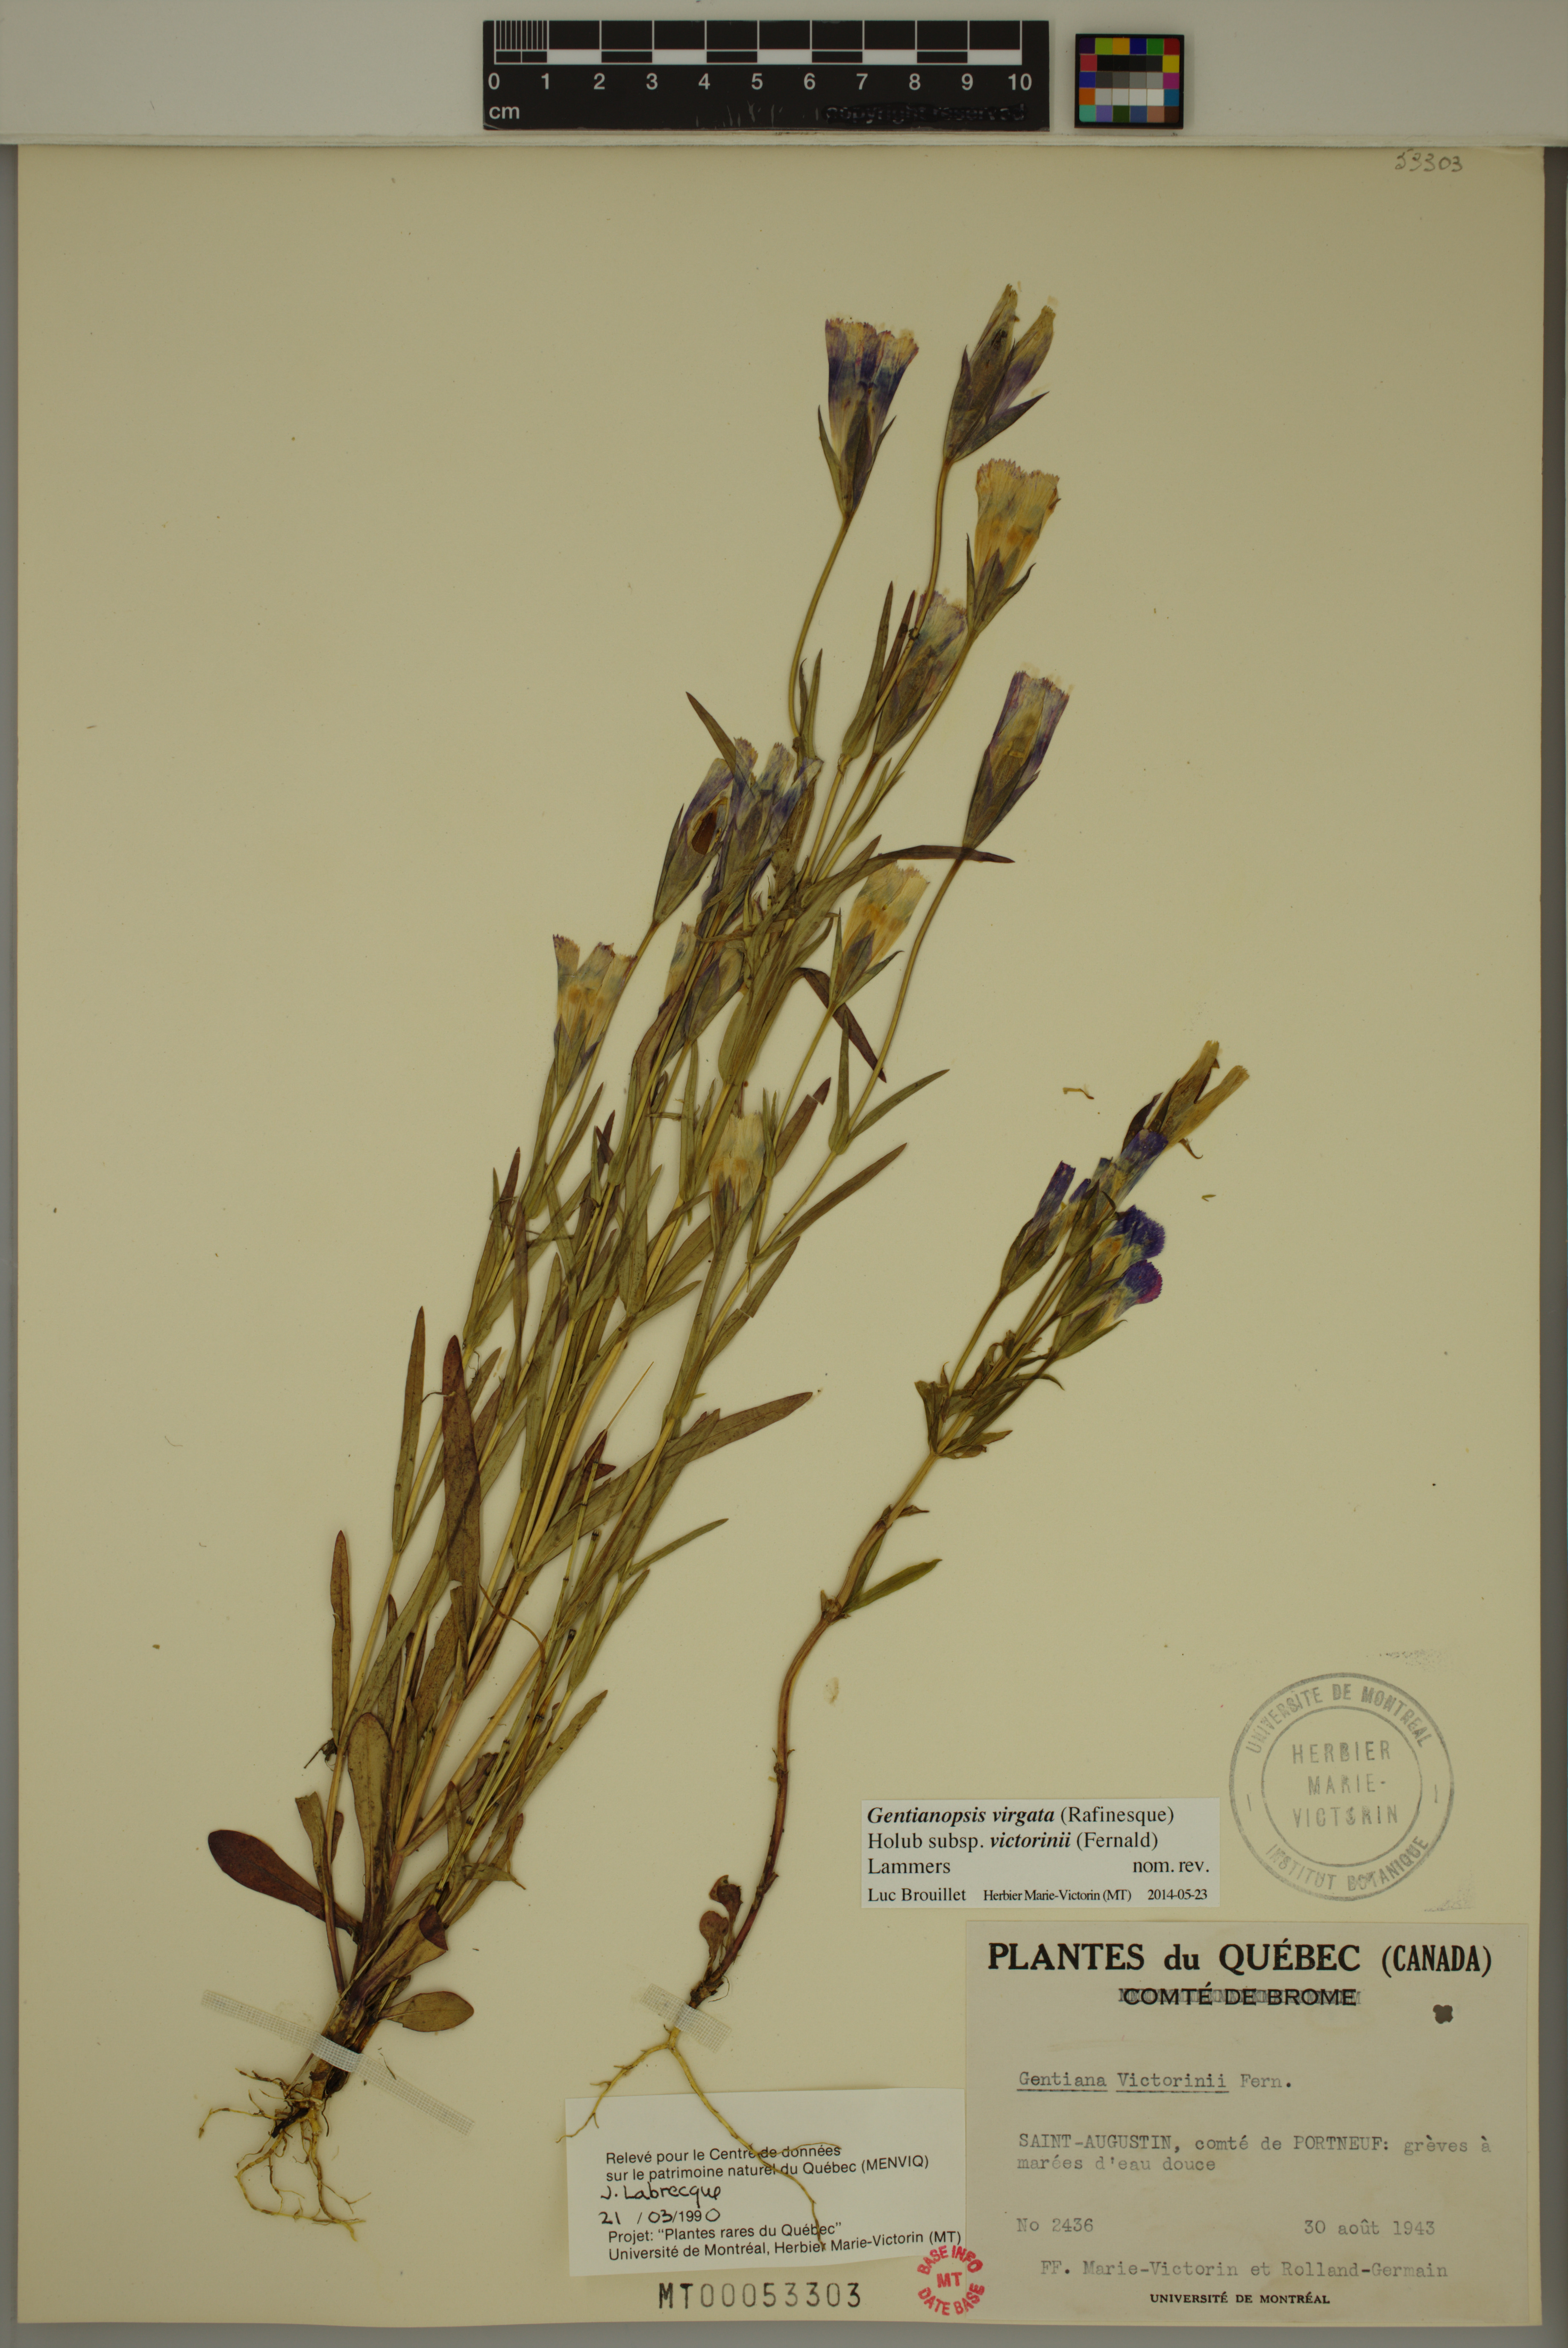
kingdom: Plantae
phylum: Tracheophyta
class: Magnoliopsida
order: Gentianales
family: Gentianaceae
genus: Gentianopsis
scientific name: Gentianopsis victorinii
